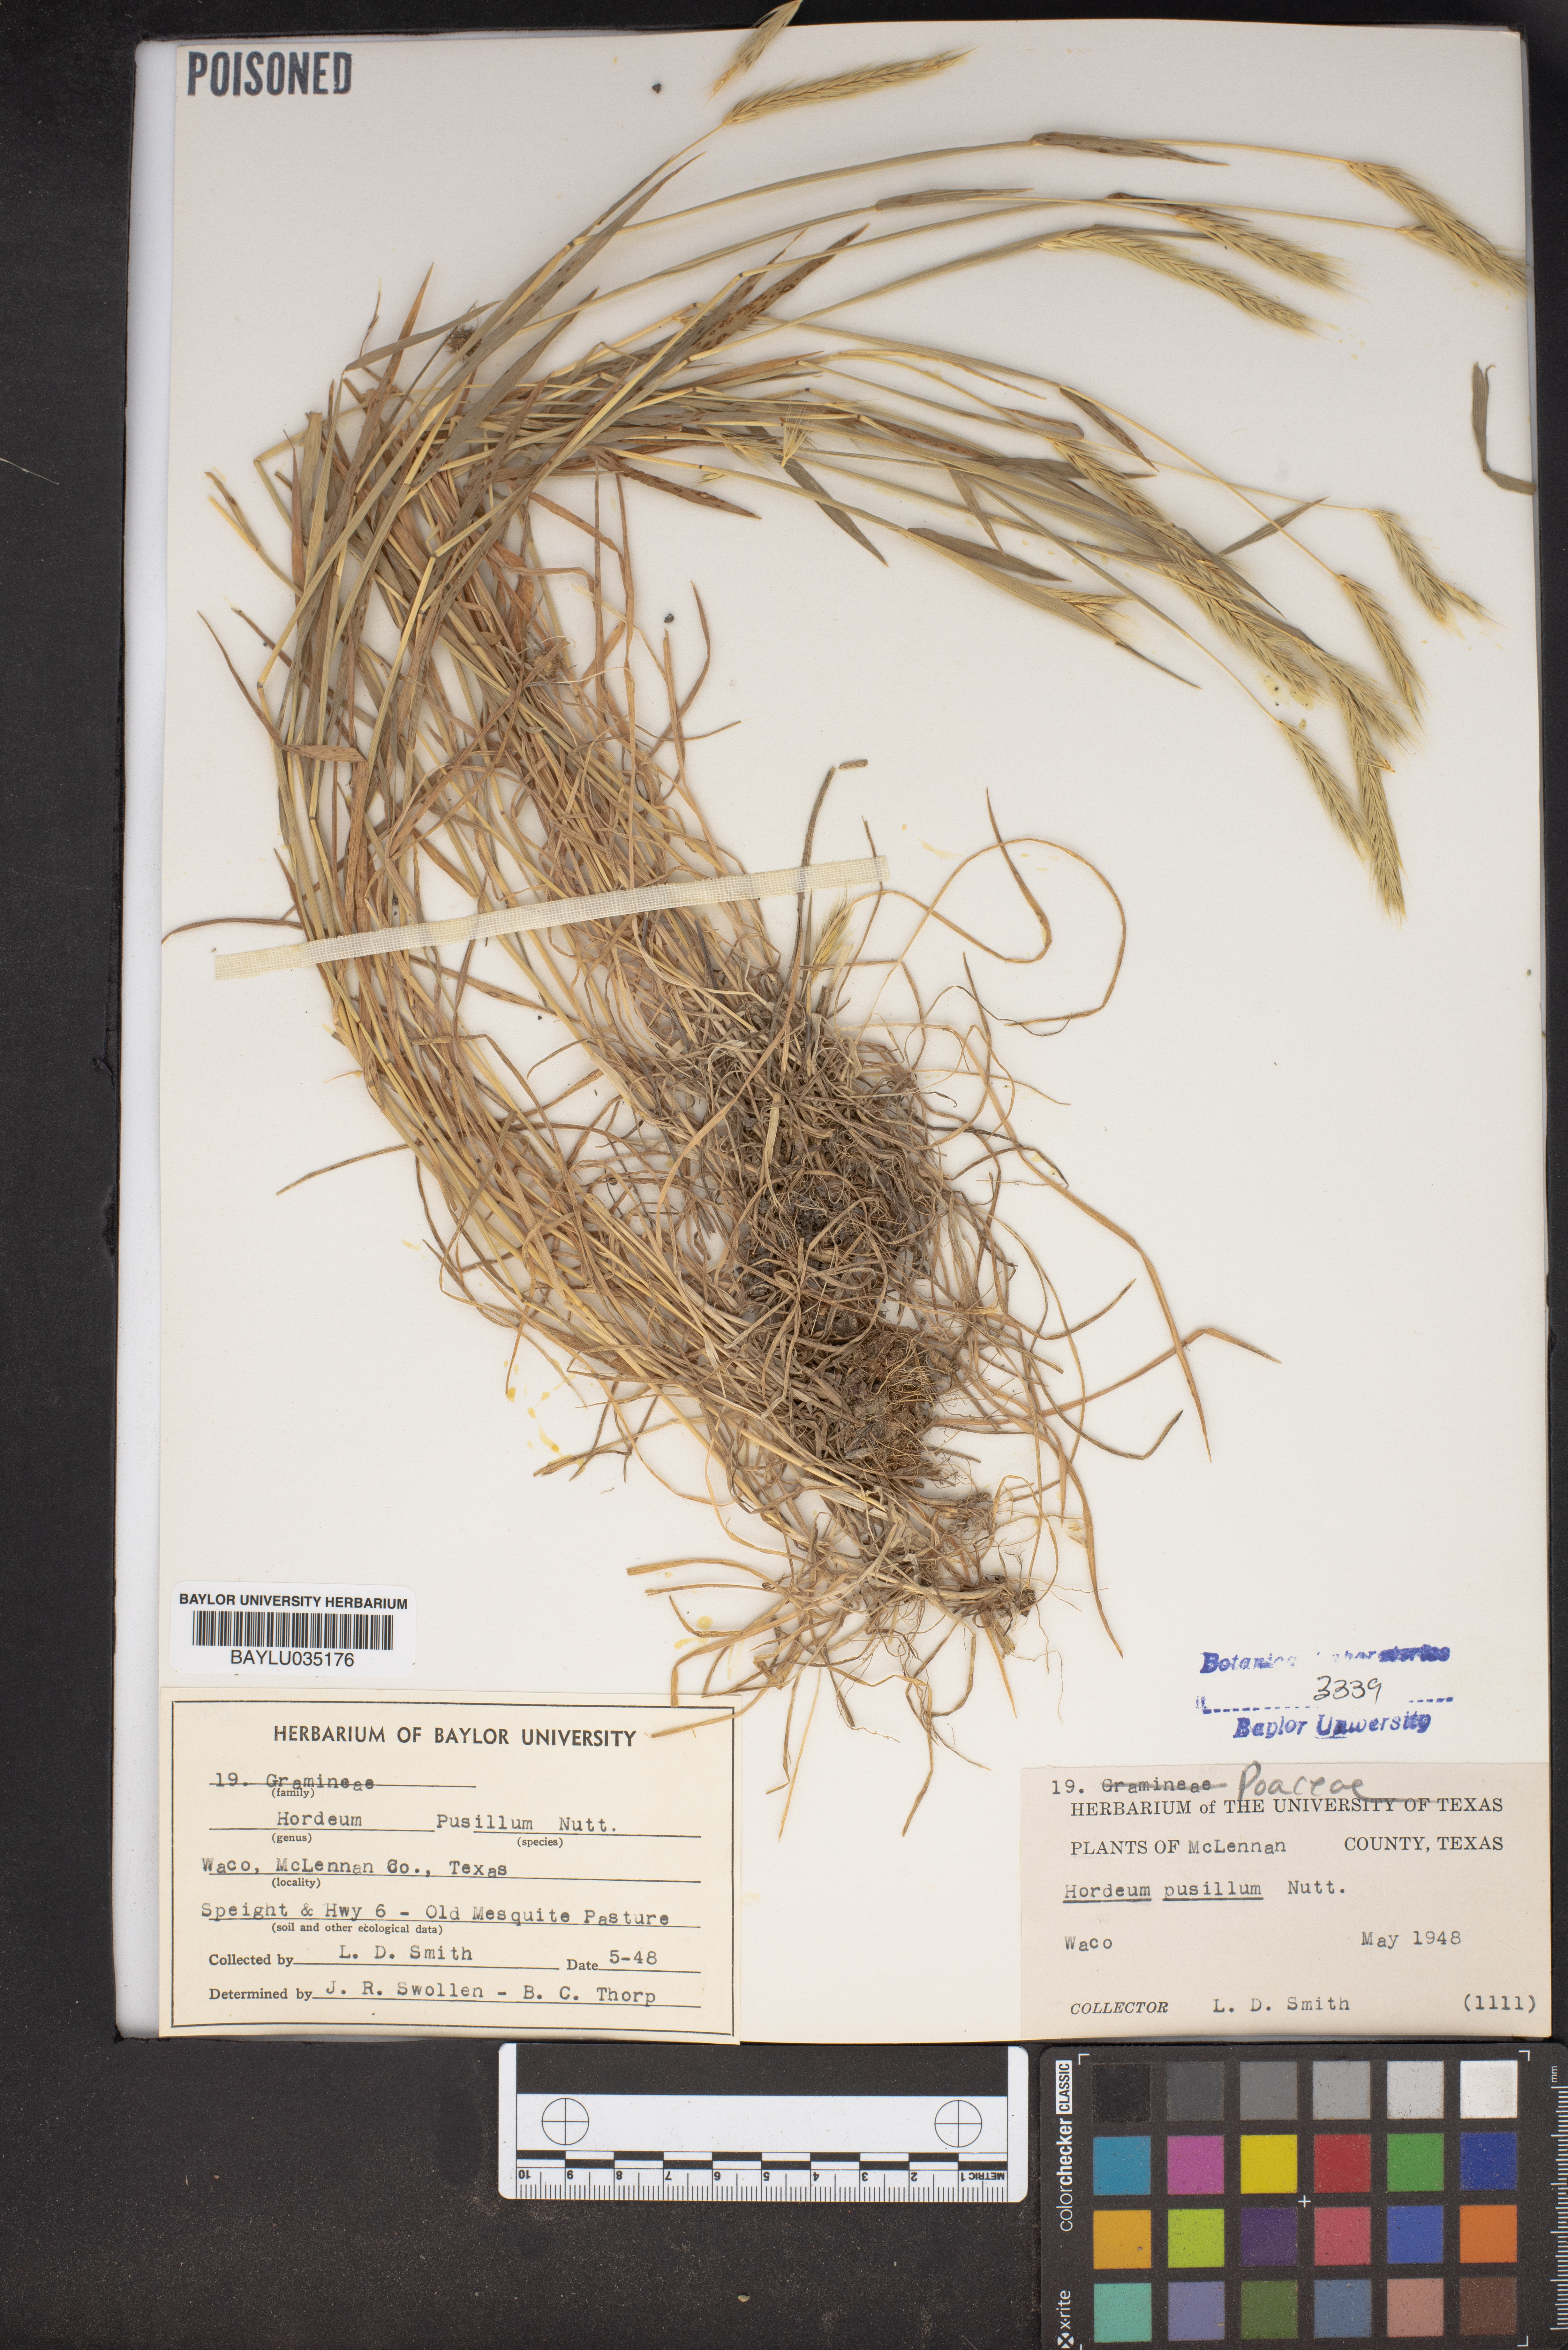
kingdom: Plantae
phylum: Tracheophyta
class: Liliopsida
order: Poales
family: Poaceae
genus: Hordeum
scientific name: Hordeum pusillum
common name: Little barley
